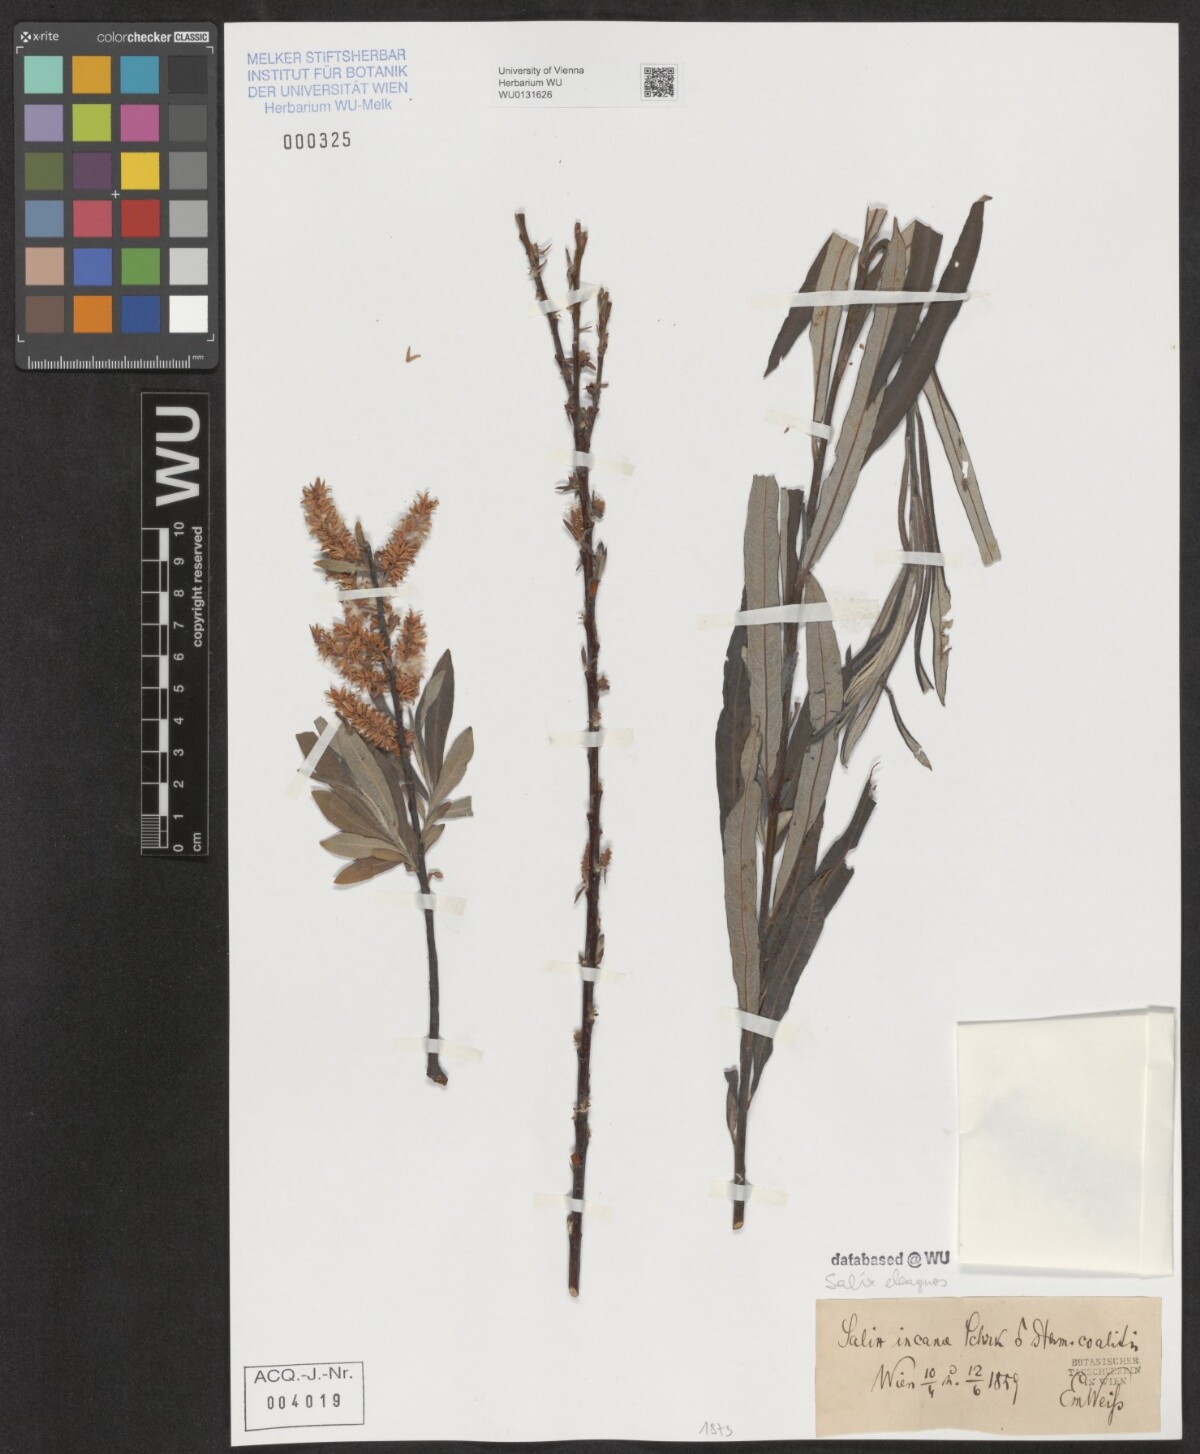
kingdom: Plantae
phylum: Tracheophyta
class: Magnoliopsida
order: Malpighiales
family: Salicaceae
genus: Salix
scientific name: Salix eleagnos
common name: Elaeagnus willow
